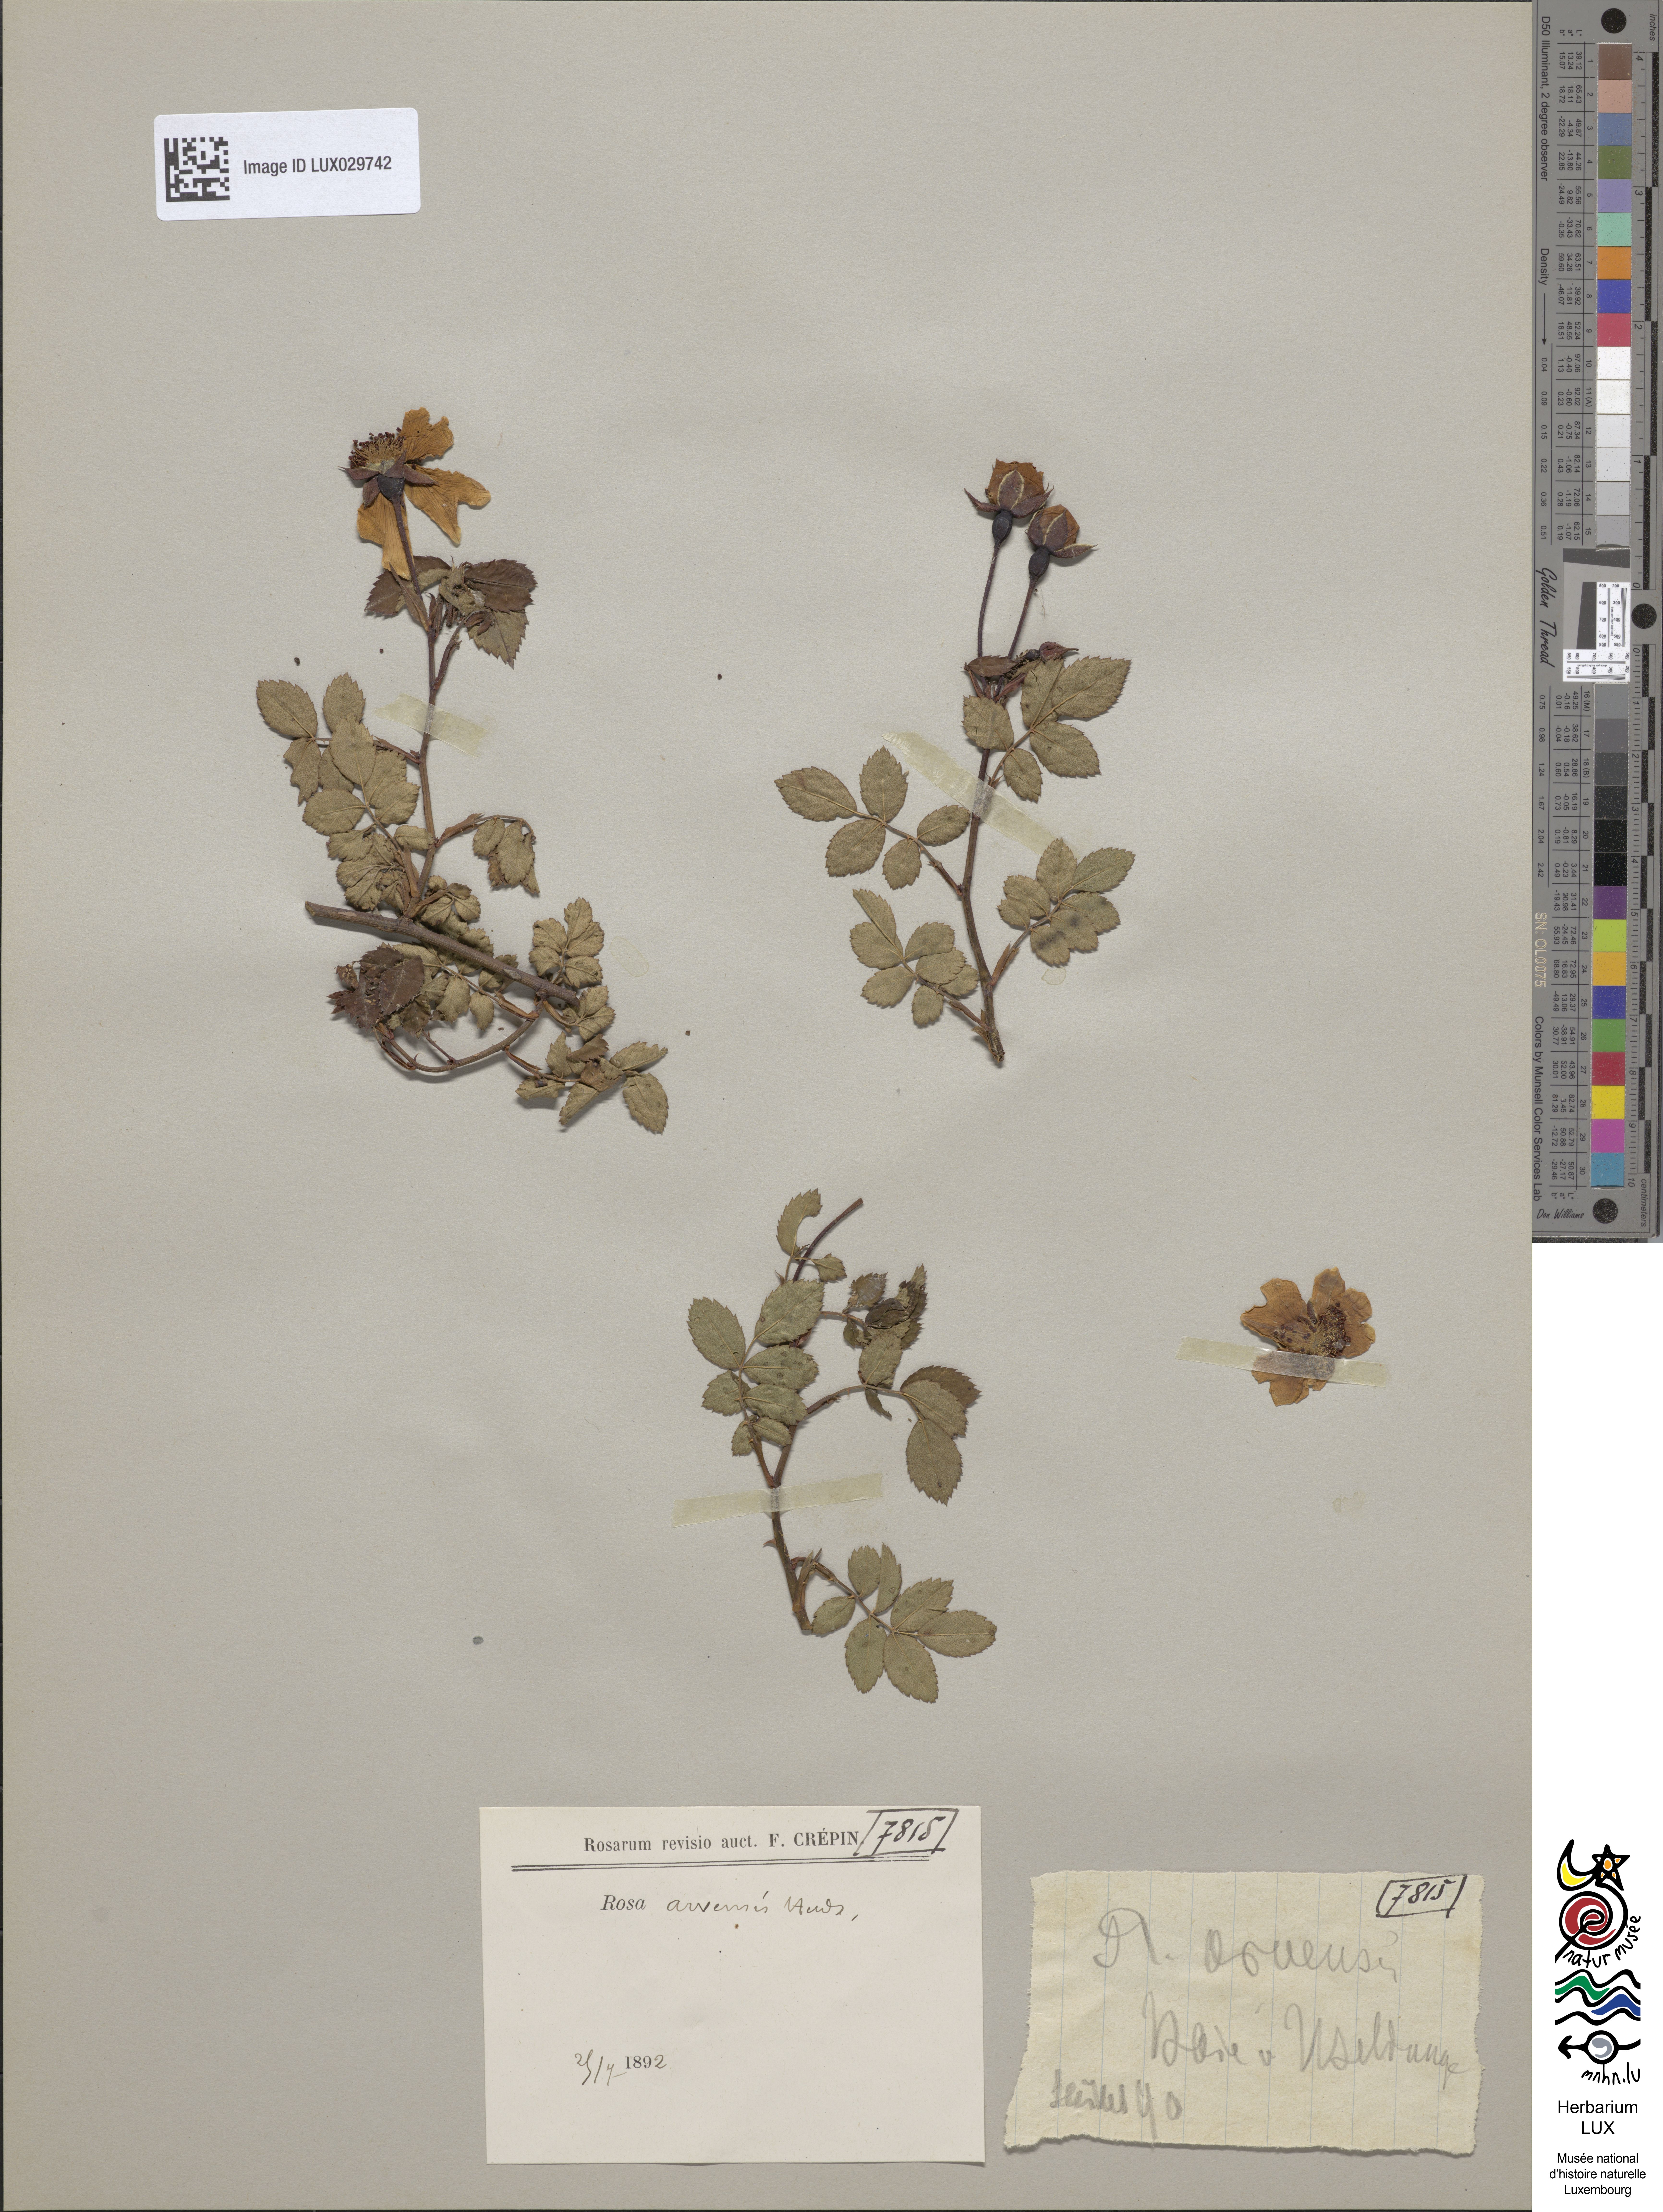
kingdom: Plantae
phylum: Tracheophyta
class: Magnoliopsida
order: Rosales
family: Rosaceae
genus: Rosa
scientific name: Rosa arvensis
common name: Field rose
